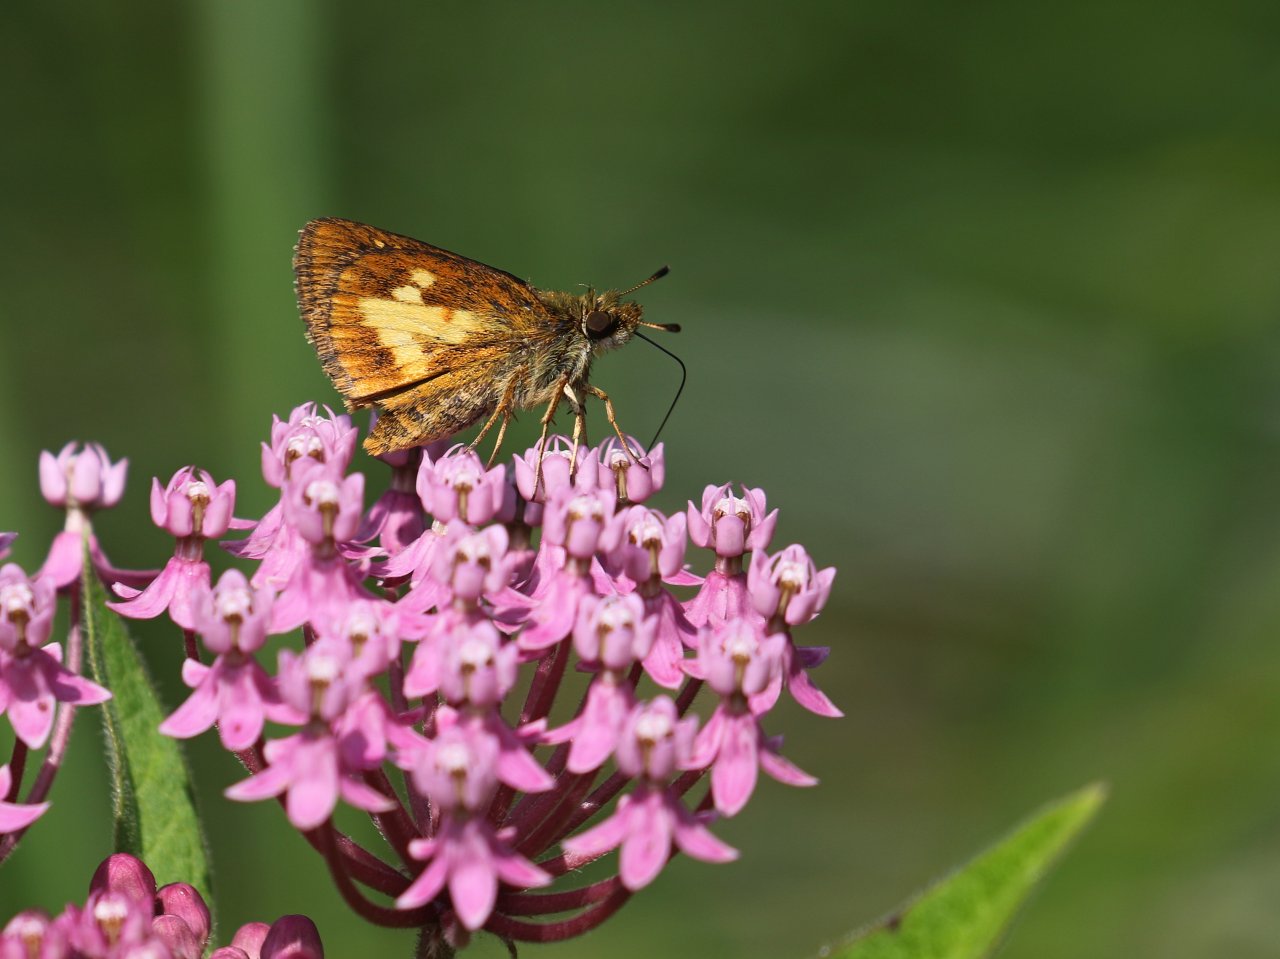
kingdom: Animalia
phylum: Arthropoda
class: Insecta
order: Lepidoptera
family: Hesperiidae
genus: Poanes
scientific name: Poanes massasoit
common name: Mulberry Wing
